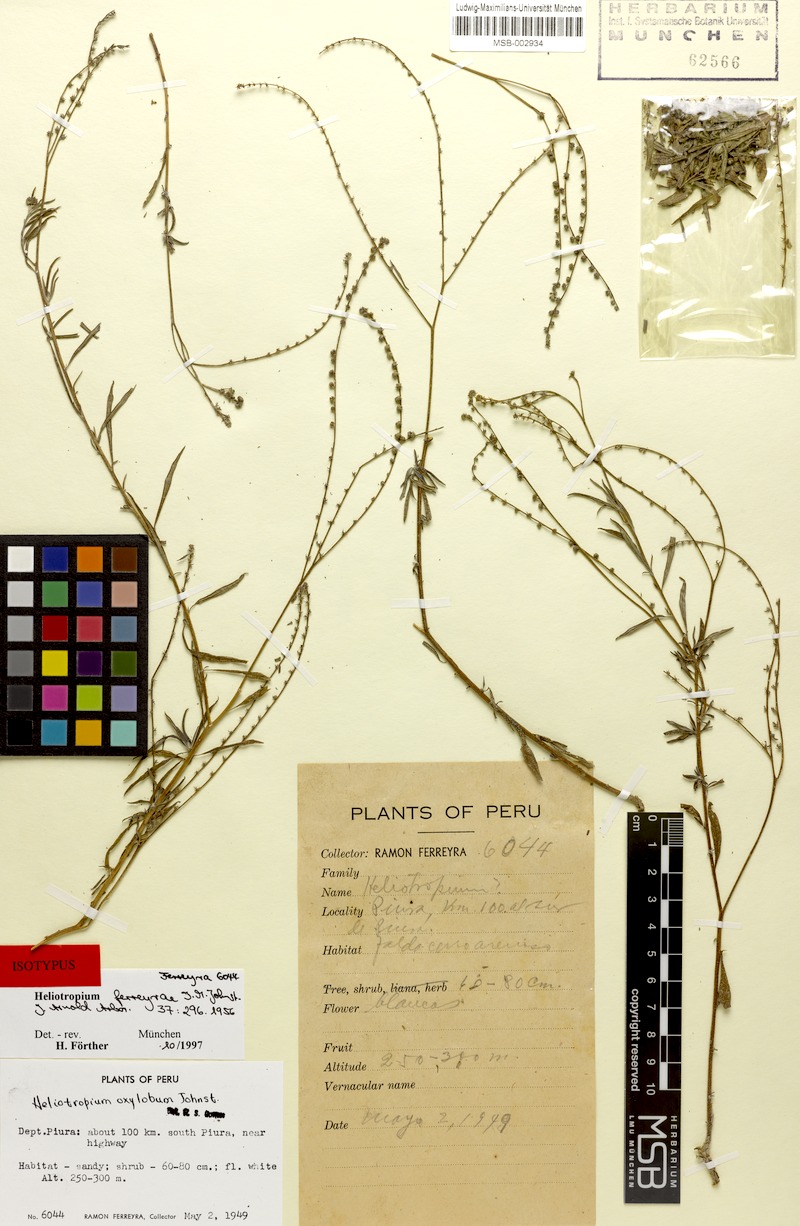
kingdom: Plantae
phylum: Tracheophyta
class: Magnoliopsida
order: Boraginales
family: Heliotropiaceae
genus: Euploca
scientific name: Euploca ferreyrae
